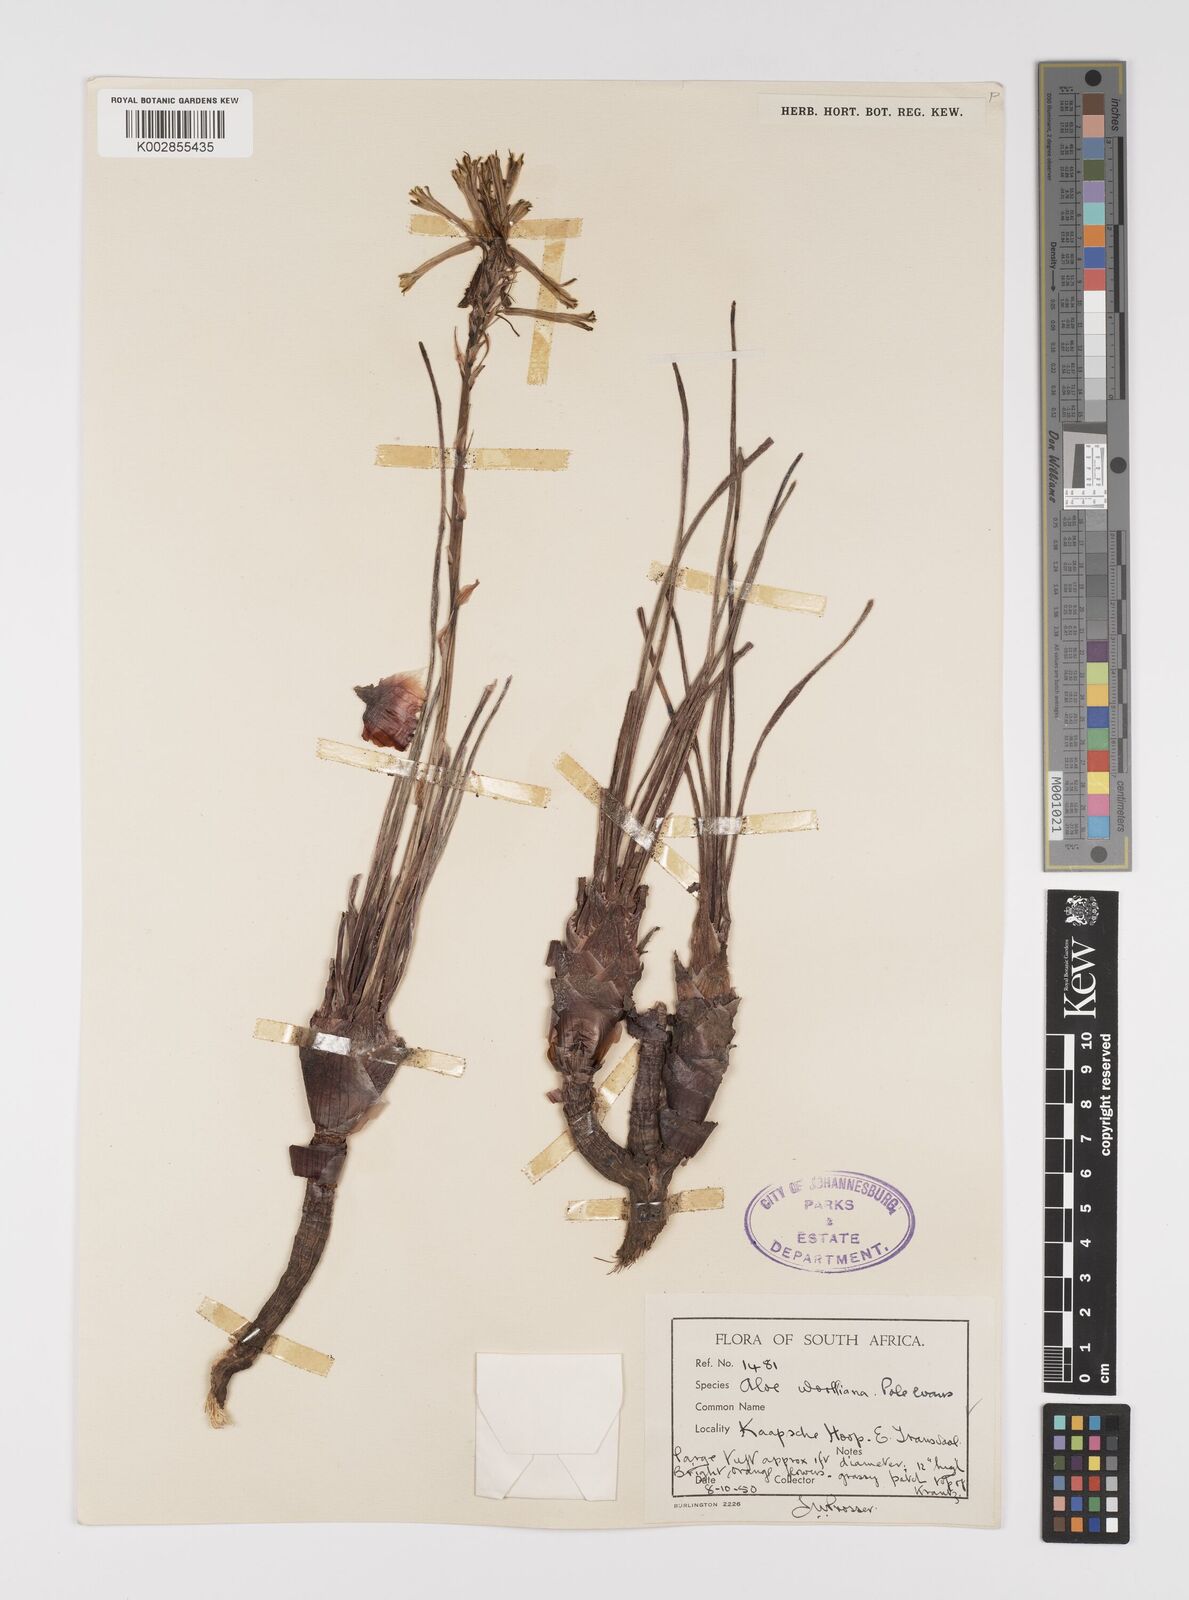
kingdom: Plantae
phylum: Tracheophyta
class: Liliopsida
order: Asparagales
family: Asphodelaceae
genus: Aloe
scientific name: Aloe chortolirioides
